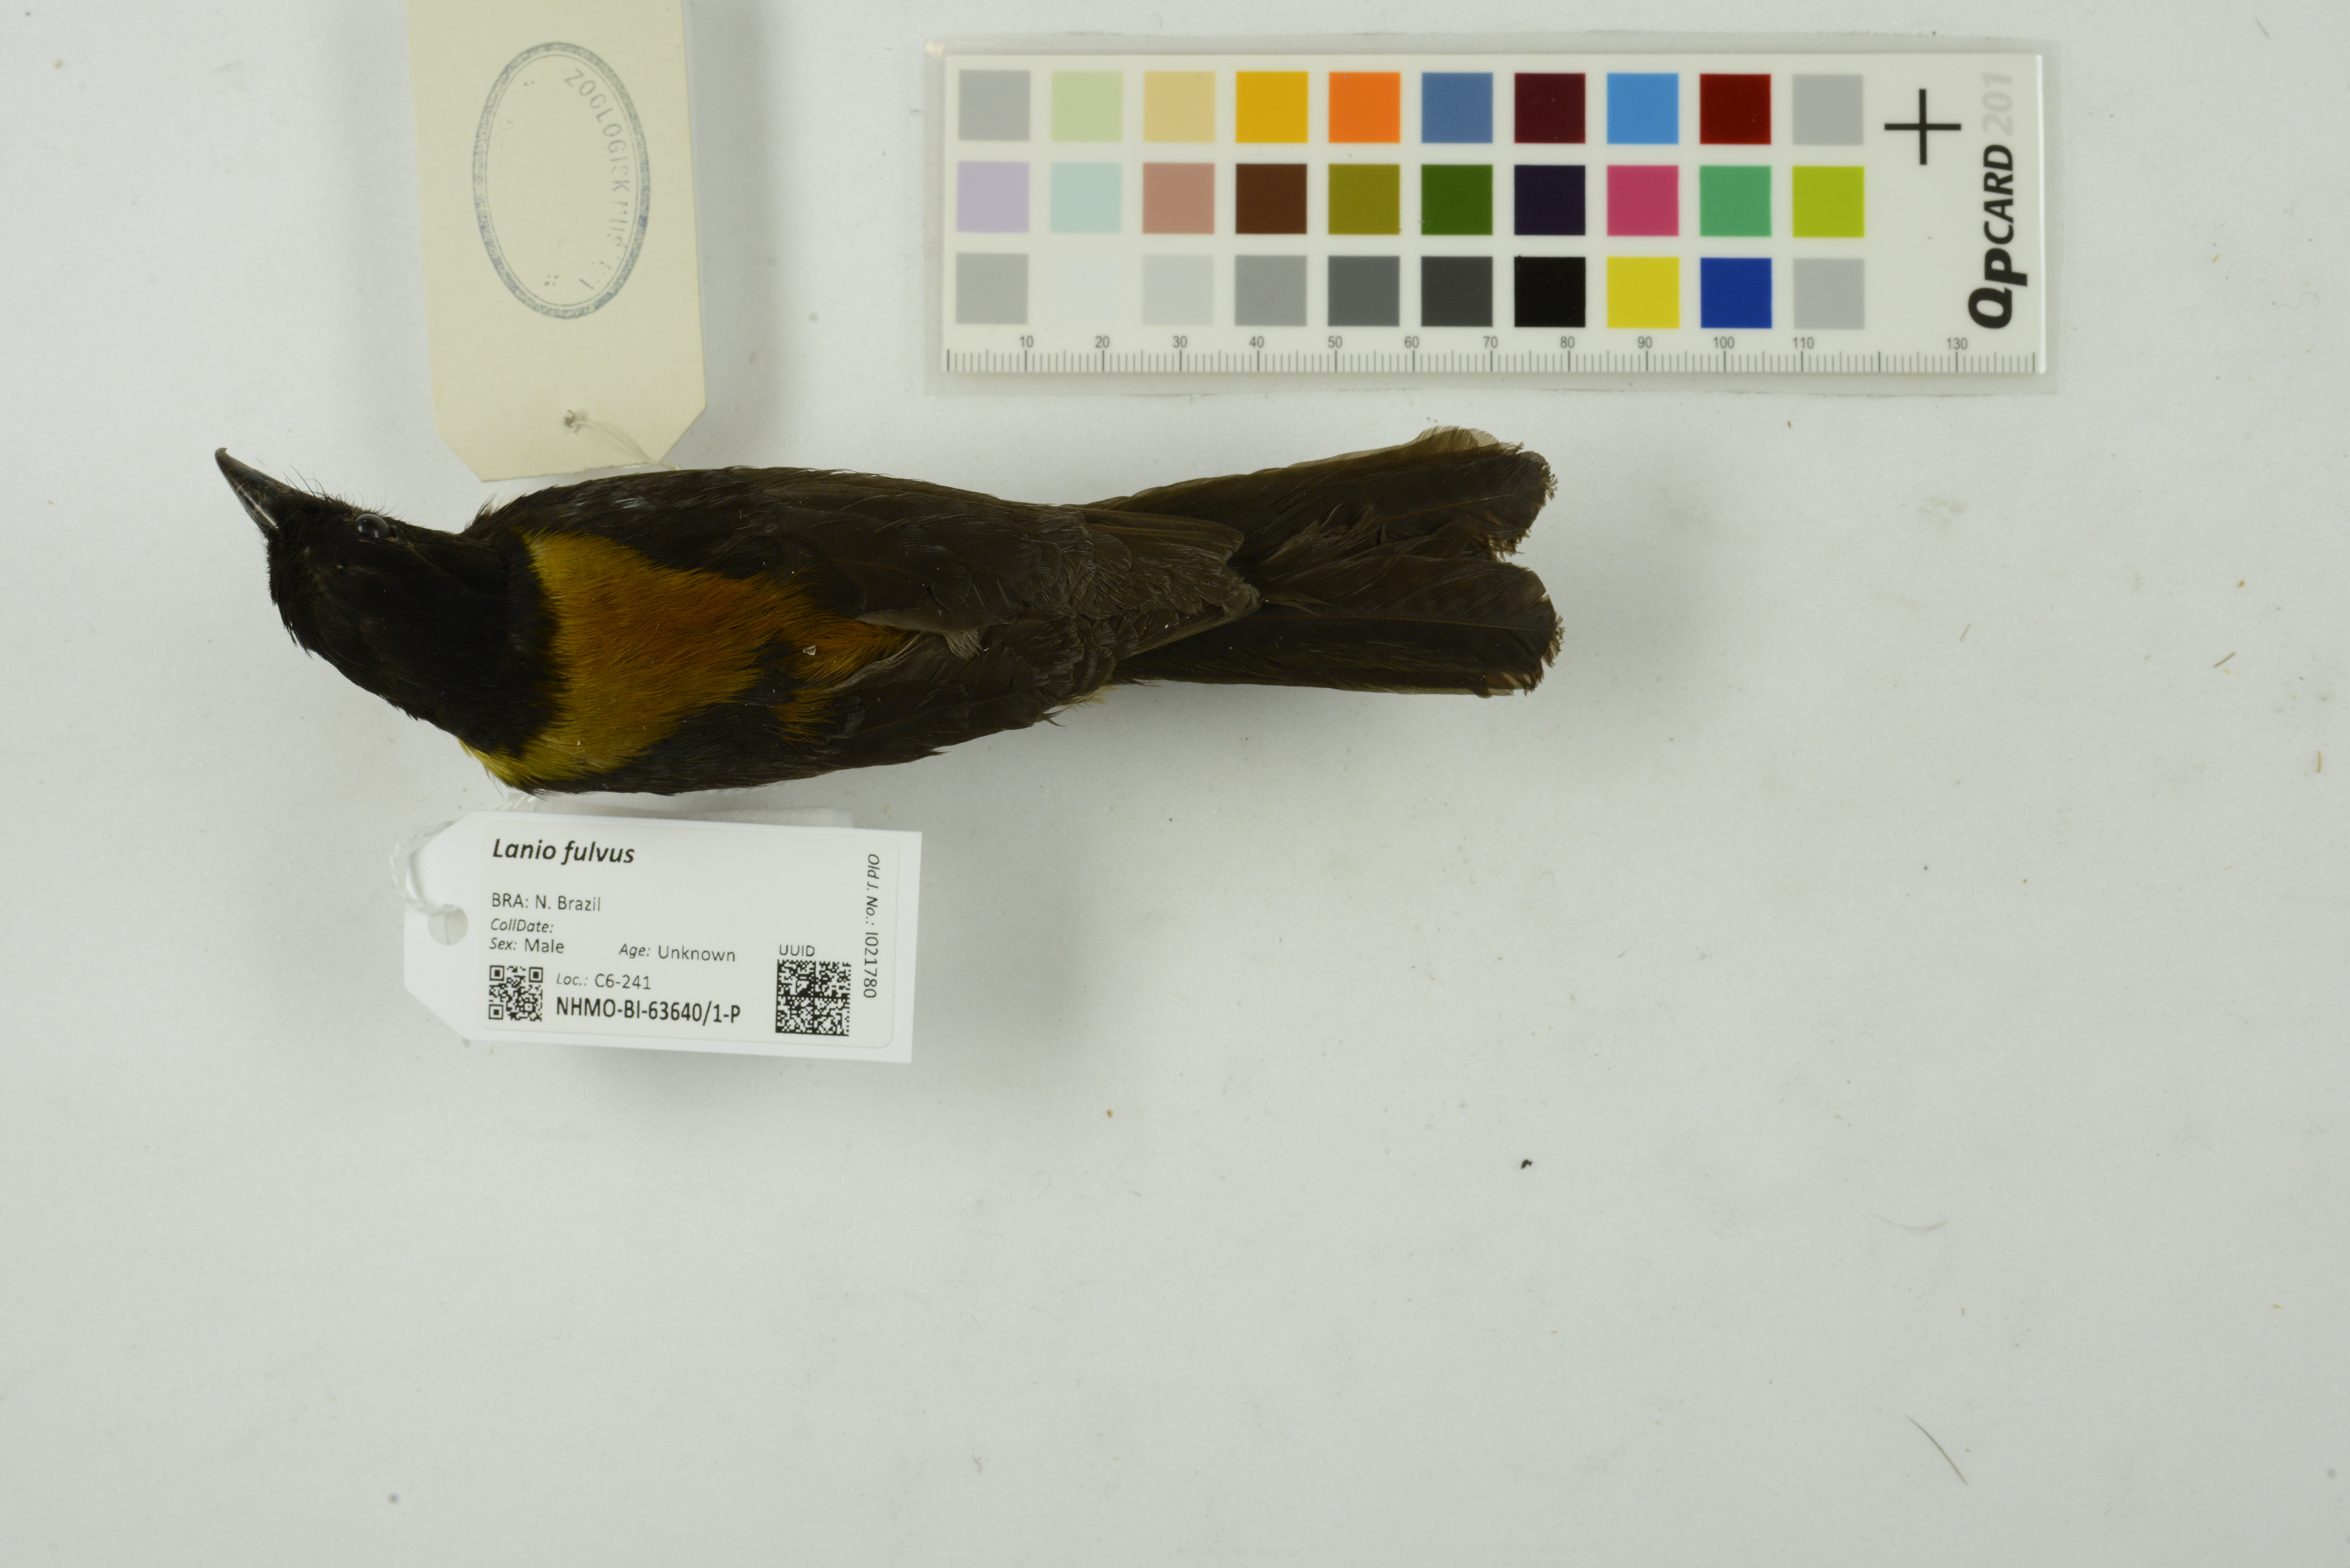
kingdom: Animalia
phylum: Chordata
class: Aves
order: Passeriformes
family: Thraupidae
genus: Lanio
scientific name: Lanio fulvus
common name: Fulvous shrike-tanager
